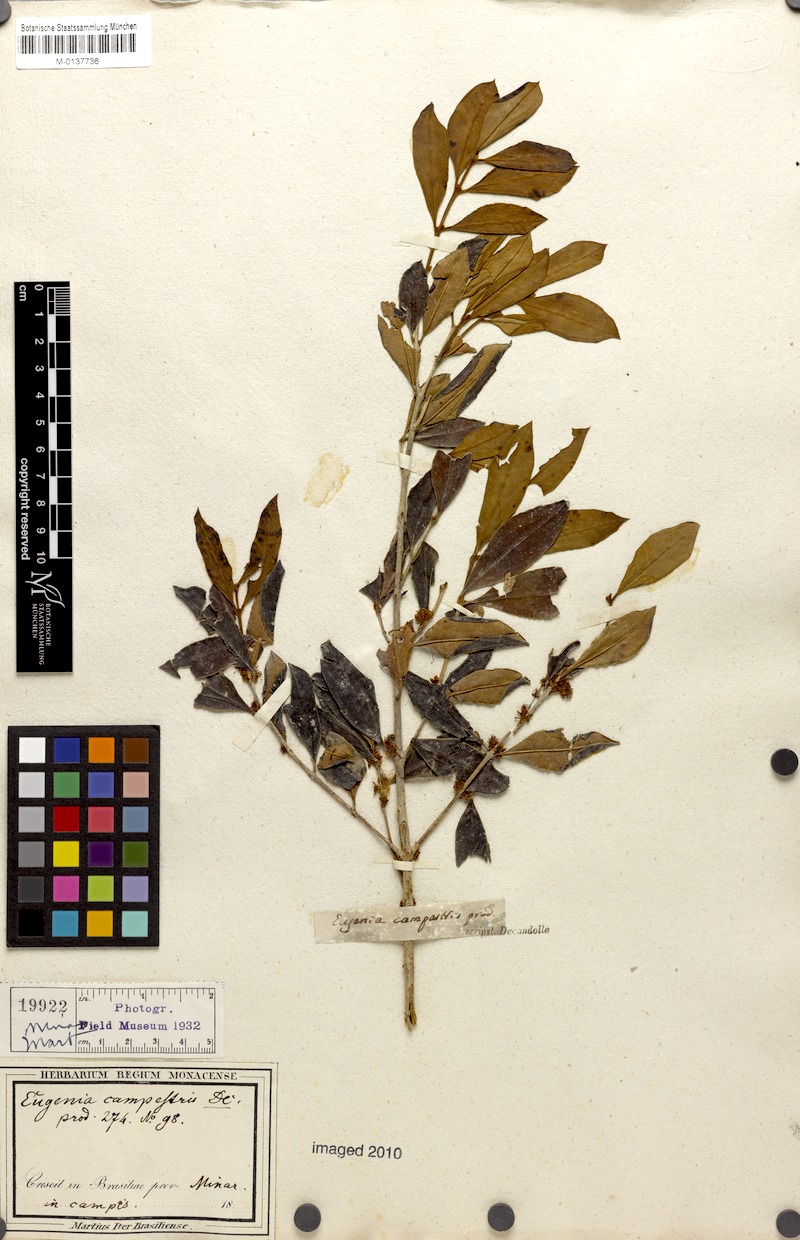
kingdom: Plantae
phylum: Tracheophyta
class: Magnoliopsida
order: Myrtales
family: Myrtaceae
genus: Myrceugenia
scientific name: Myrceugenia campestris
